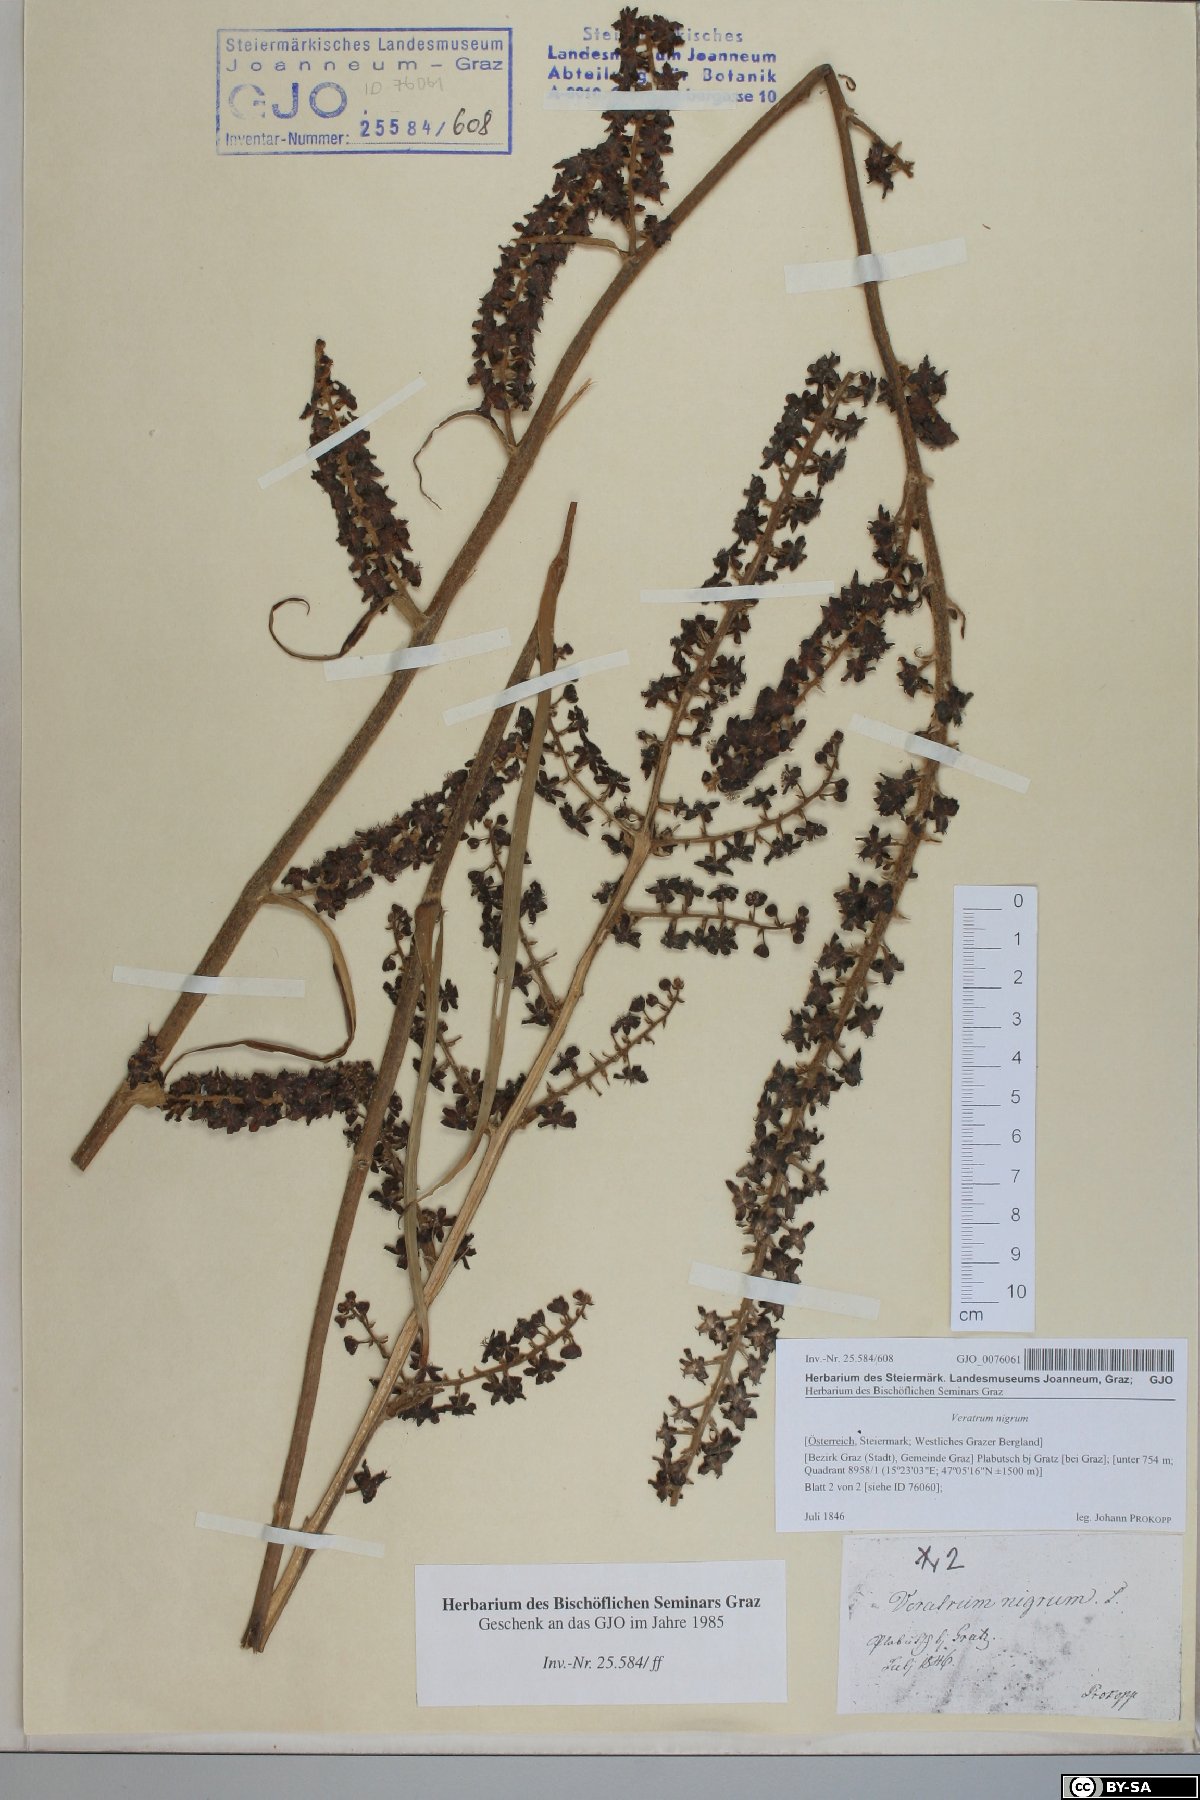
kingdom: Plantae
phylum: Tracheophyta
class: Liliopsida
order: Liliales
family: Melanthiaceae
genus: Veratrum
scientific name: Veratrum nigrum
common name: Black veratrum
